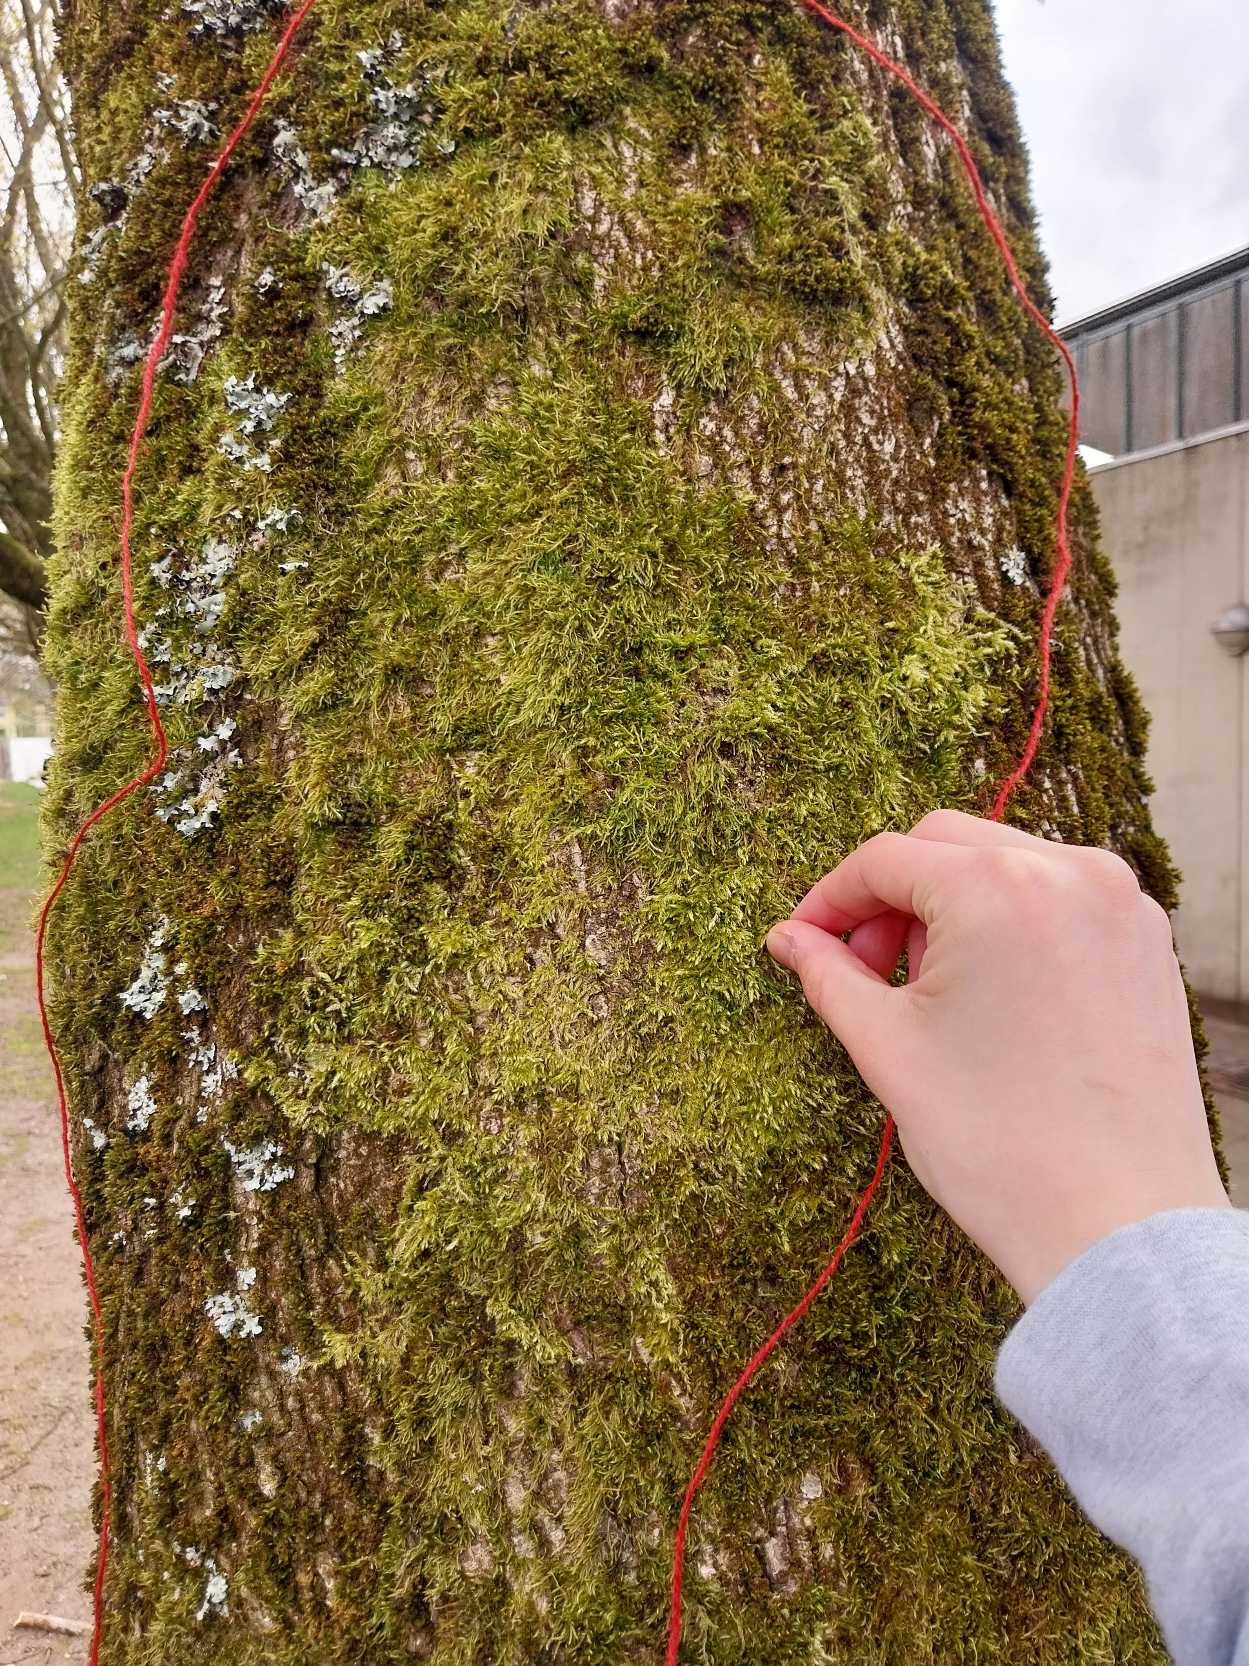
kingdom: Plantae
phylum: Bryophyta
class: Bryopsida
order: Hypnales
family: Hypnaceae
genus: Hypnum
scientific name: Hypnum
